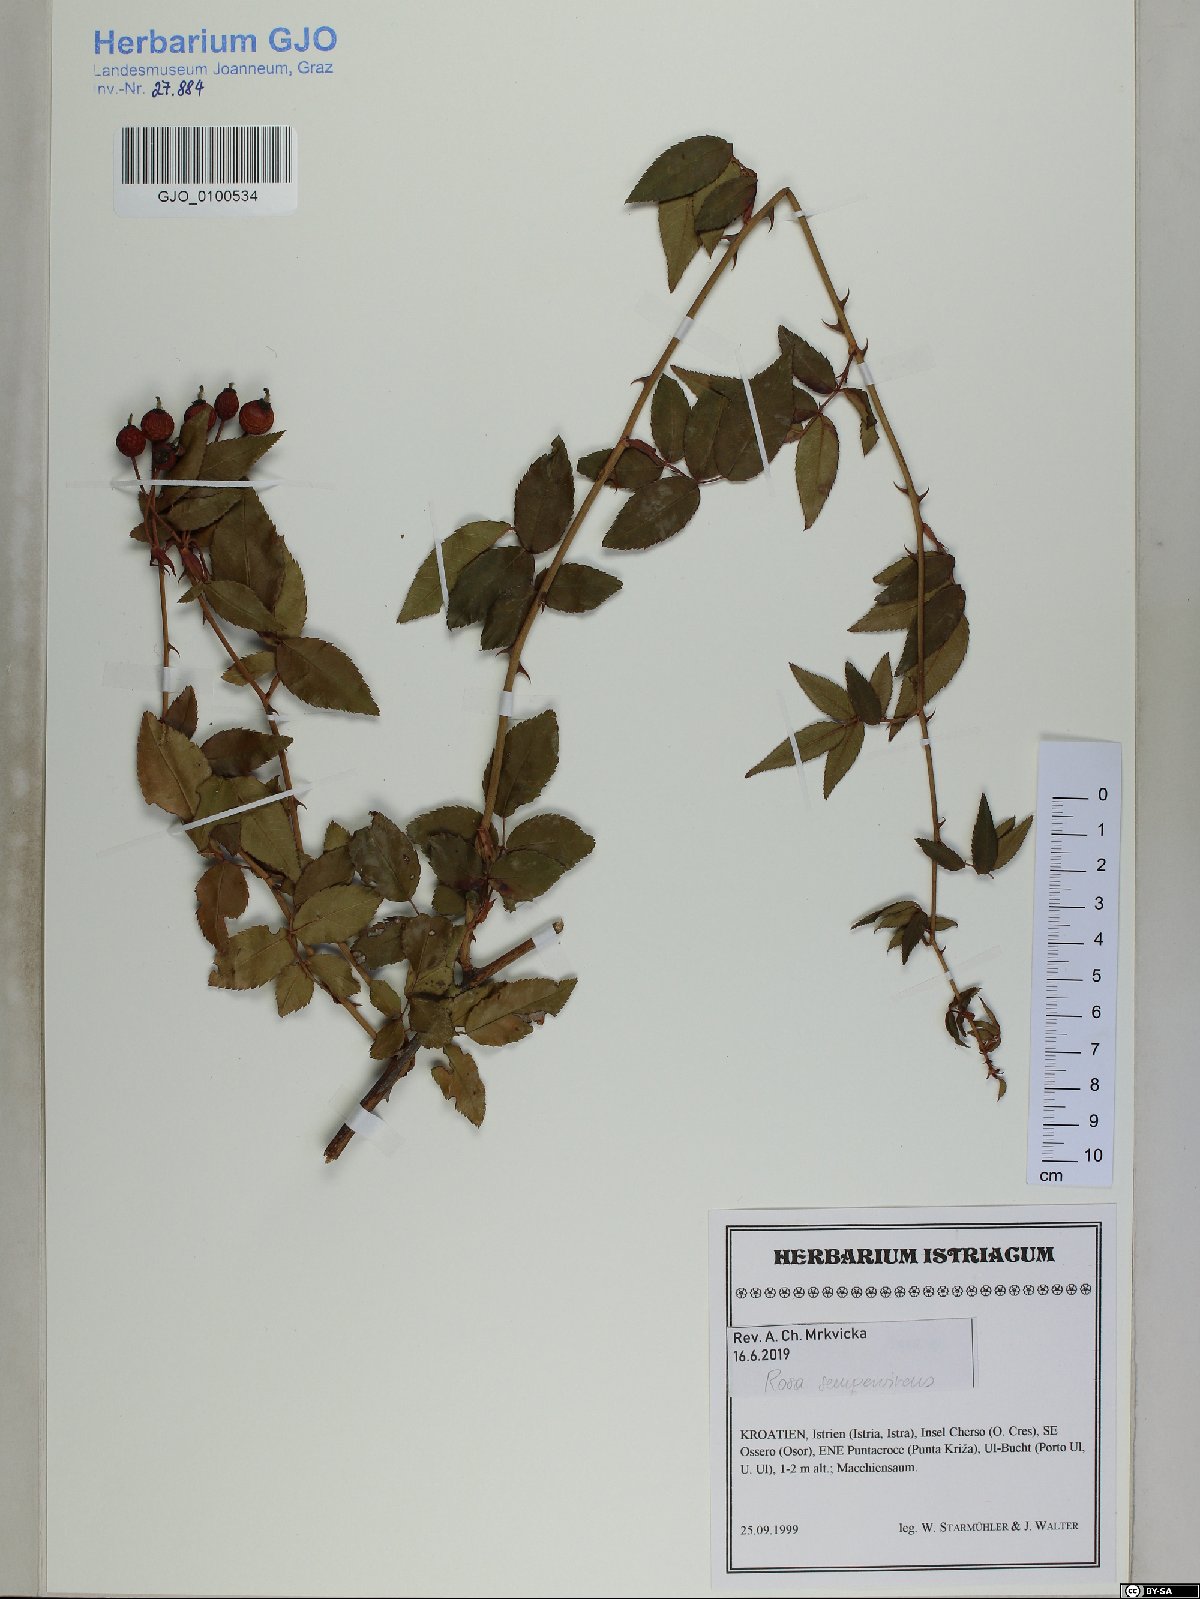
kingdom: Plantae
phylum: Tracheophyta
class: Magnoliopsida
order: Rosales
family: Rosaceae
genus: Rosa
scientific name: Rosa sempervirens
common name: Evergreen rose
